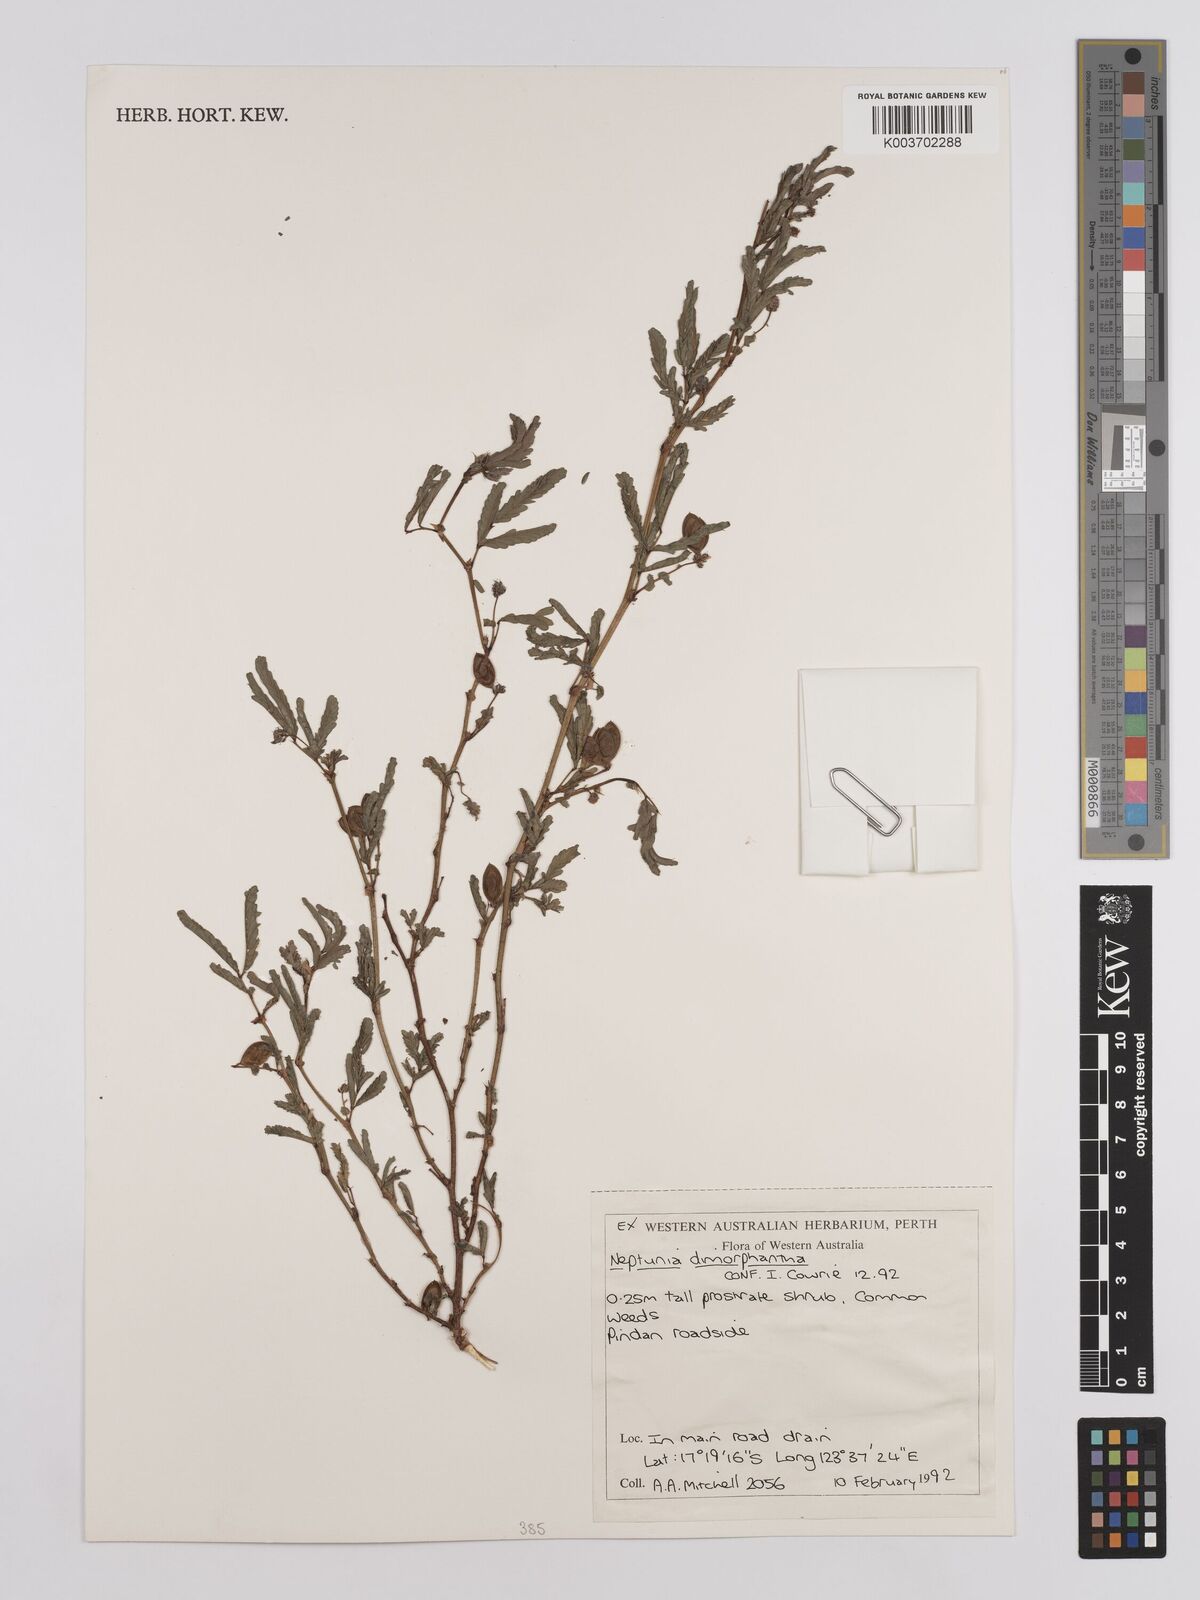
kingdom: Plantae
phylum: Tracheophyta
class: Magnoliopsida
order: Fabales
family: Fabaceae
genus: Neptunia
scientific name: Neptunia dimorphantha
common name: Sensitive-plant
